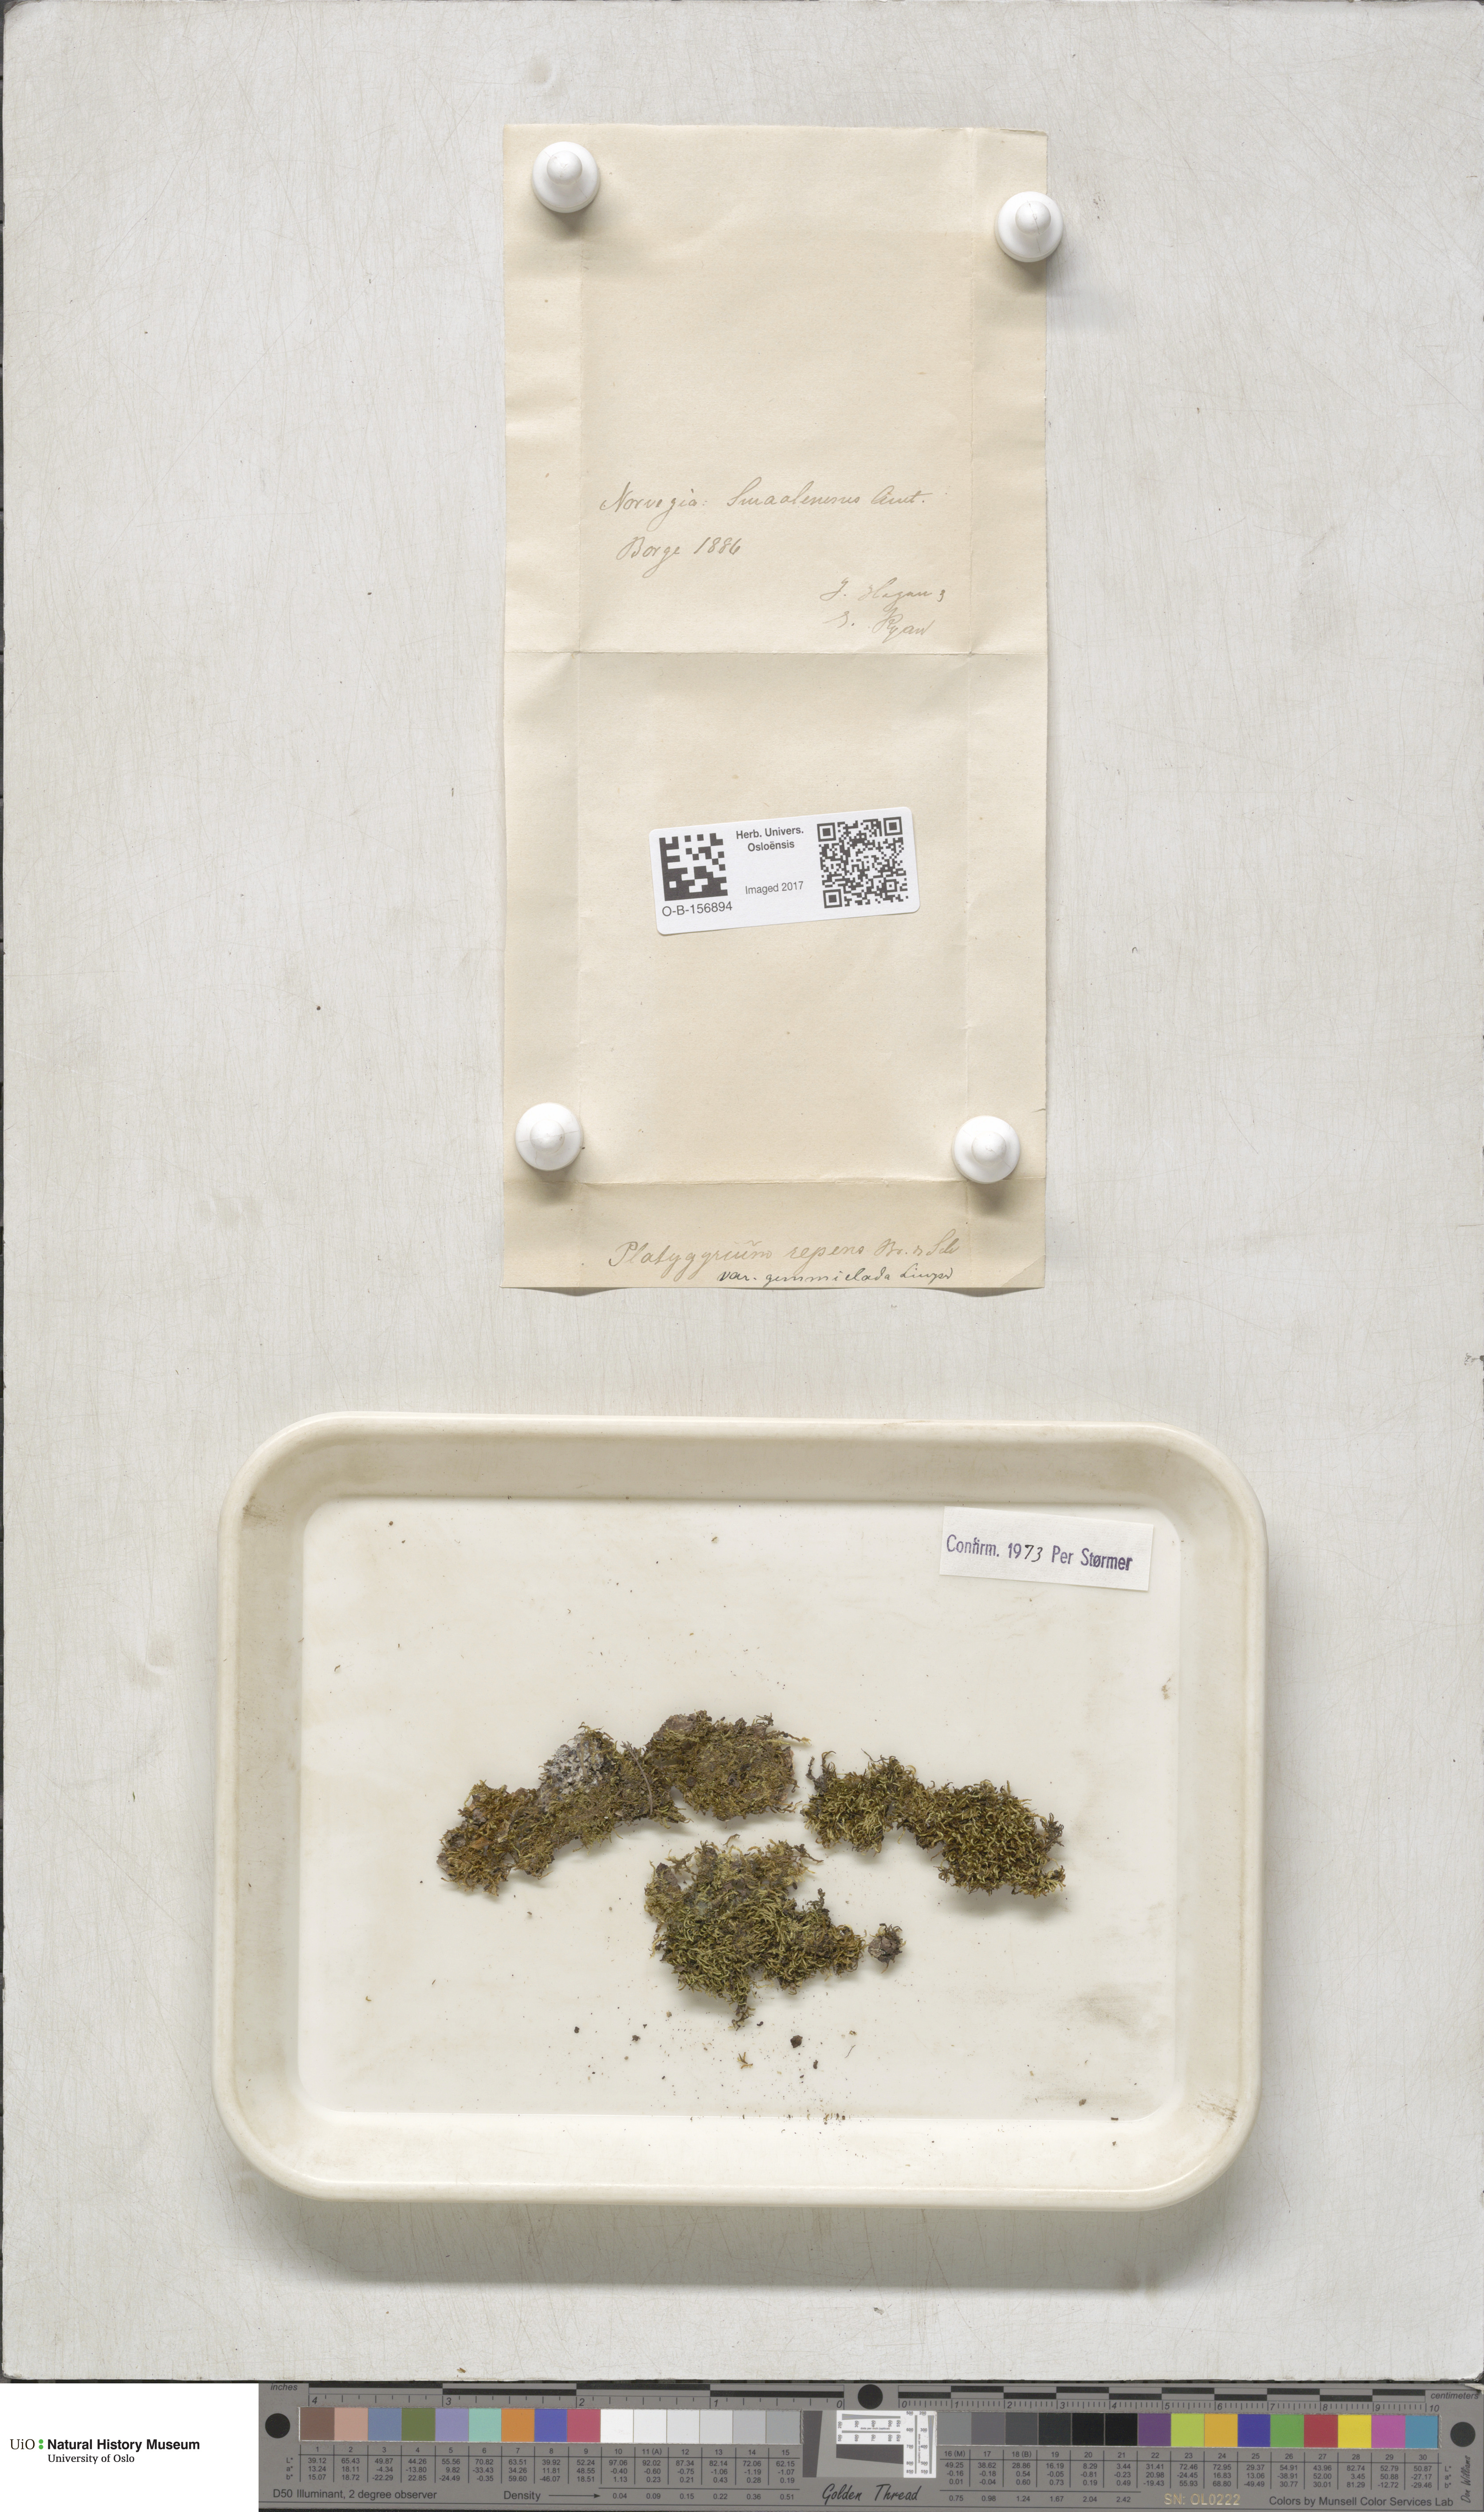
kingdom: Plantae
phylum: Bryophyta
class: Bryopsida
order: Hypnales
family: Pylaisiadelphaceae
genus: Platygyrium
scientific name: Platygyrium repens
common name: Flat-brocade moss
